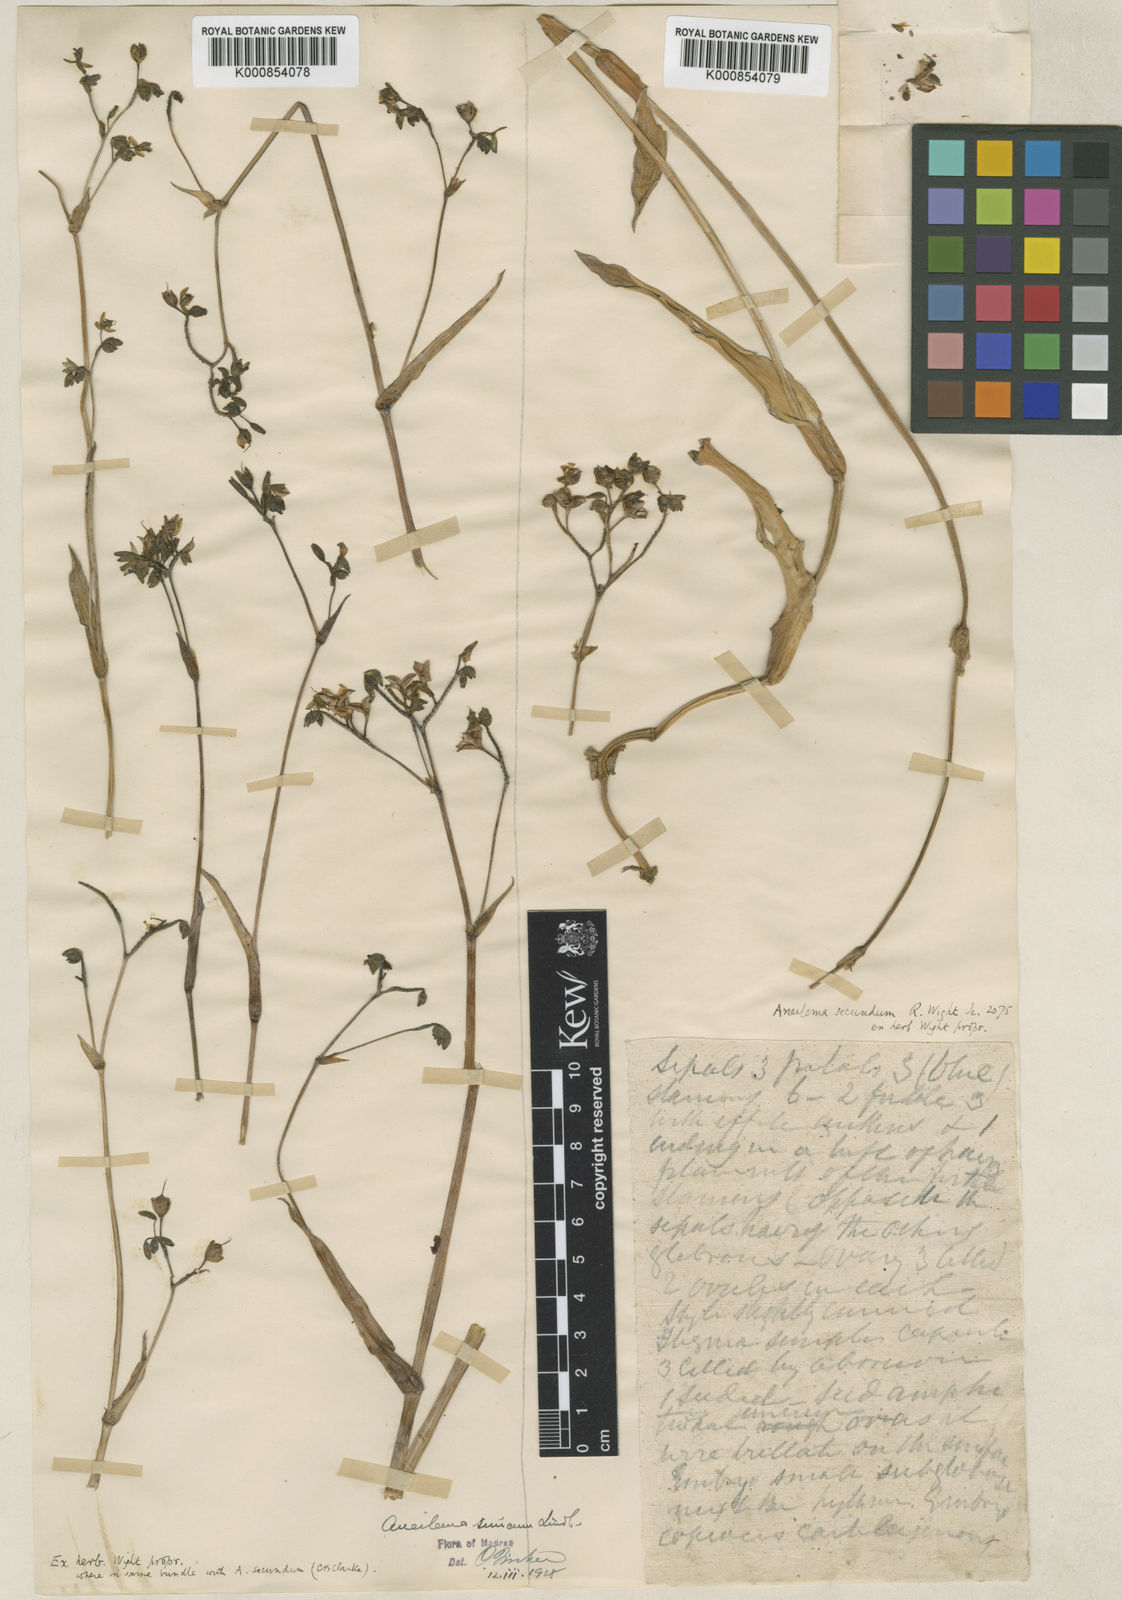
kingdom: Plantae
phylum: Tracheophyta
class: Liliopsida
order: Commelinales
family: Commelinaceae
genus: Murdannia
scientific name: Murdannia simplex
